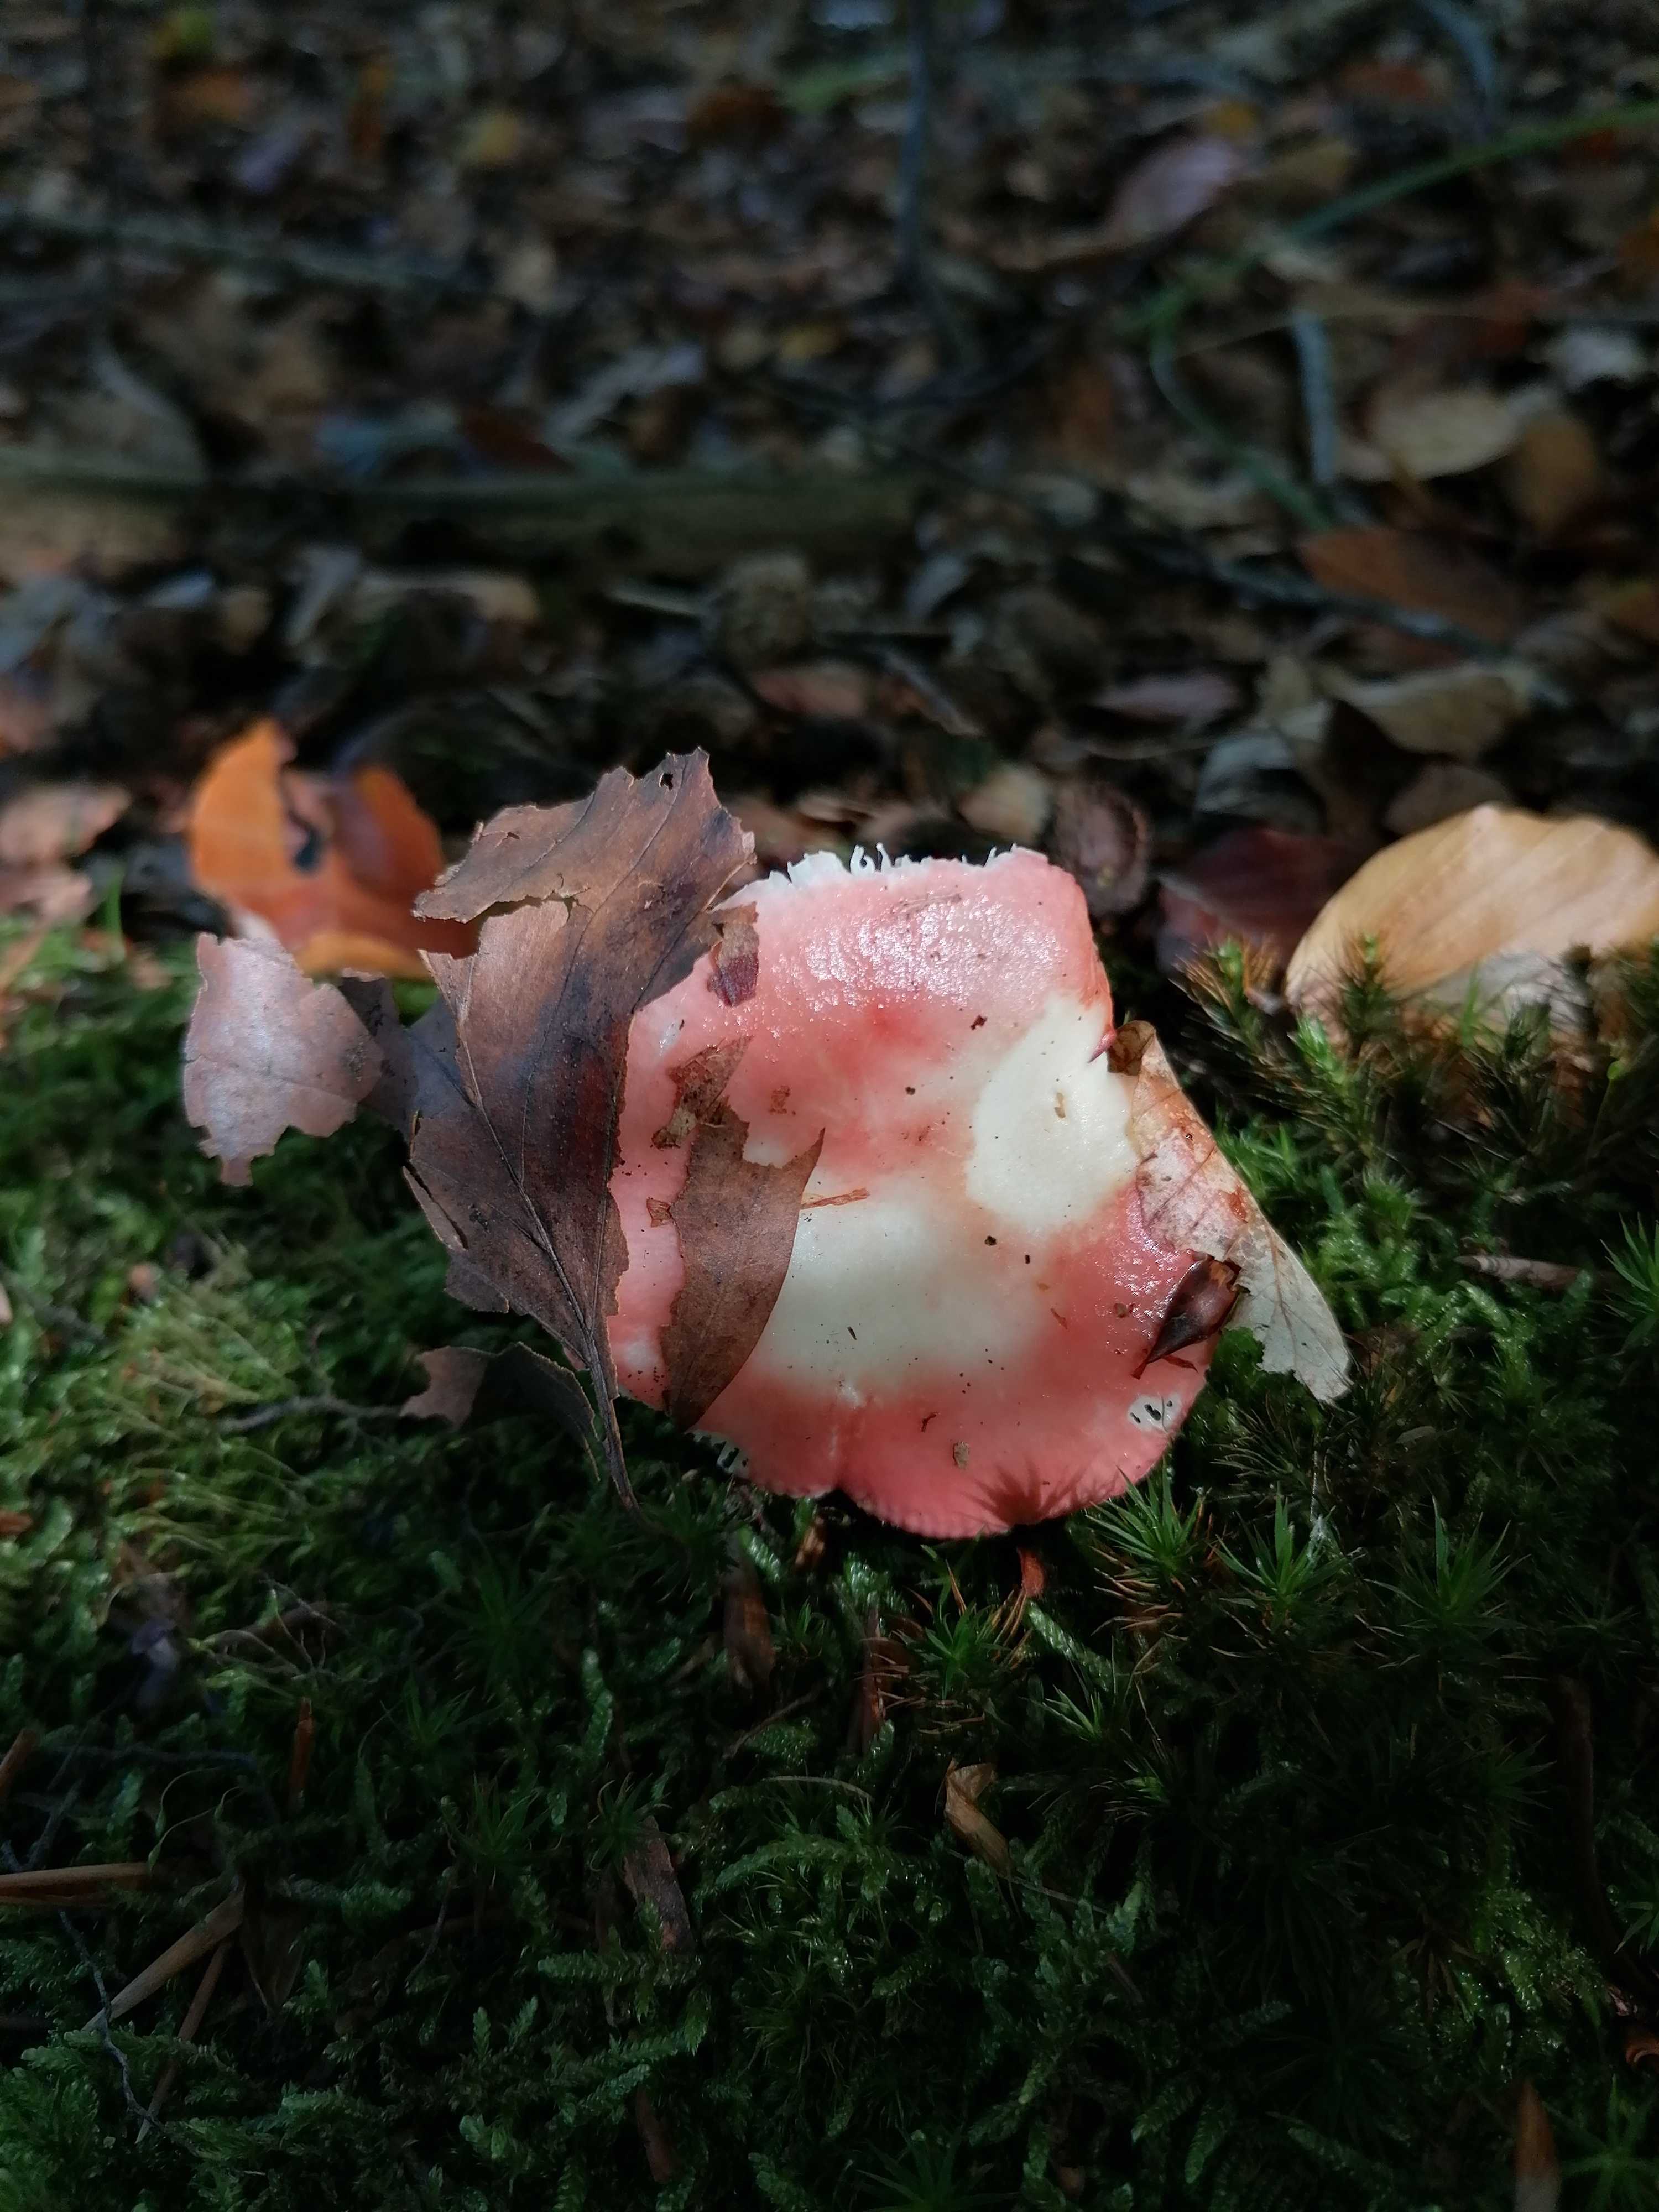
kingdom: Fungi
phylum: Basidiomycota
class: Agaricomycetes
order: Russulales
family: Russulaceae
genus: Russula
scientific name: Russula nobilis
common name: lille gift-skørhat
